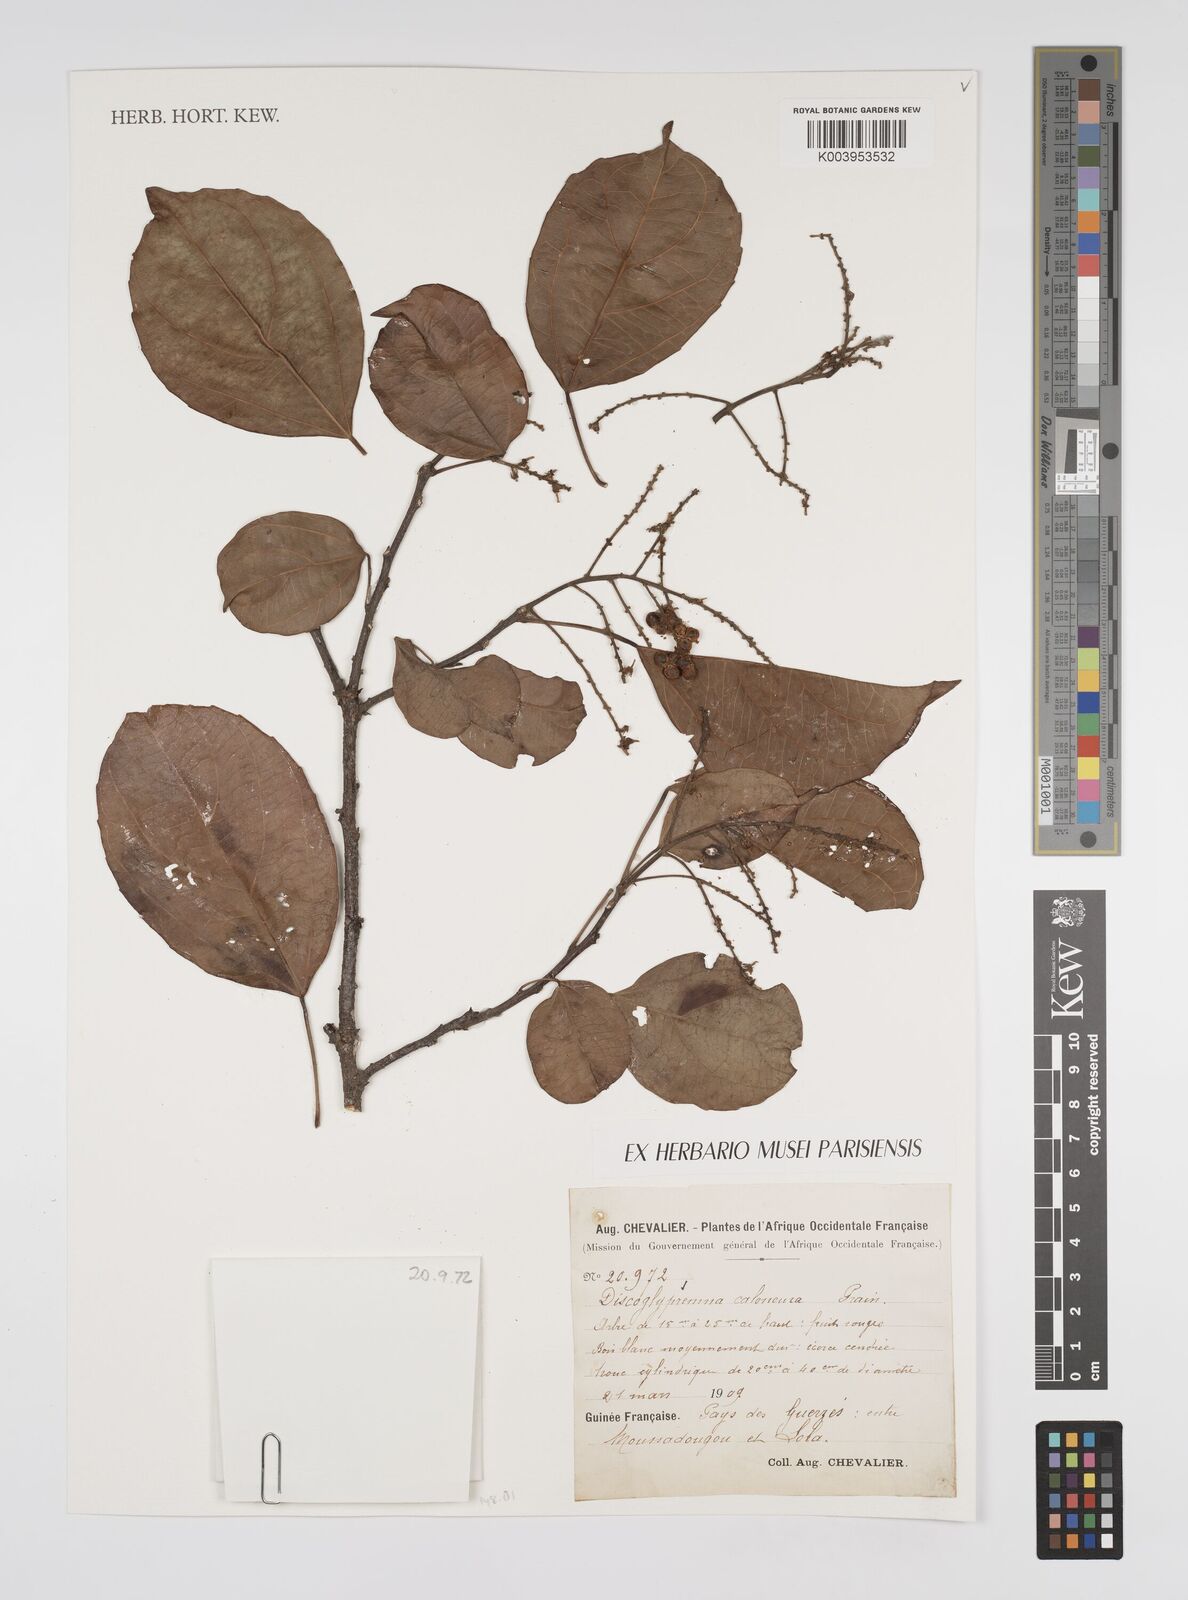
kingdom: Plantae
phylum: Tracheophyta
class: Magnoliopsida
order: Malpighiales
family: Euphorbiaceae
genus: Discoglypremna
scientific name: Discoglypremna caloneura
